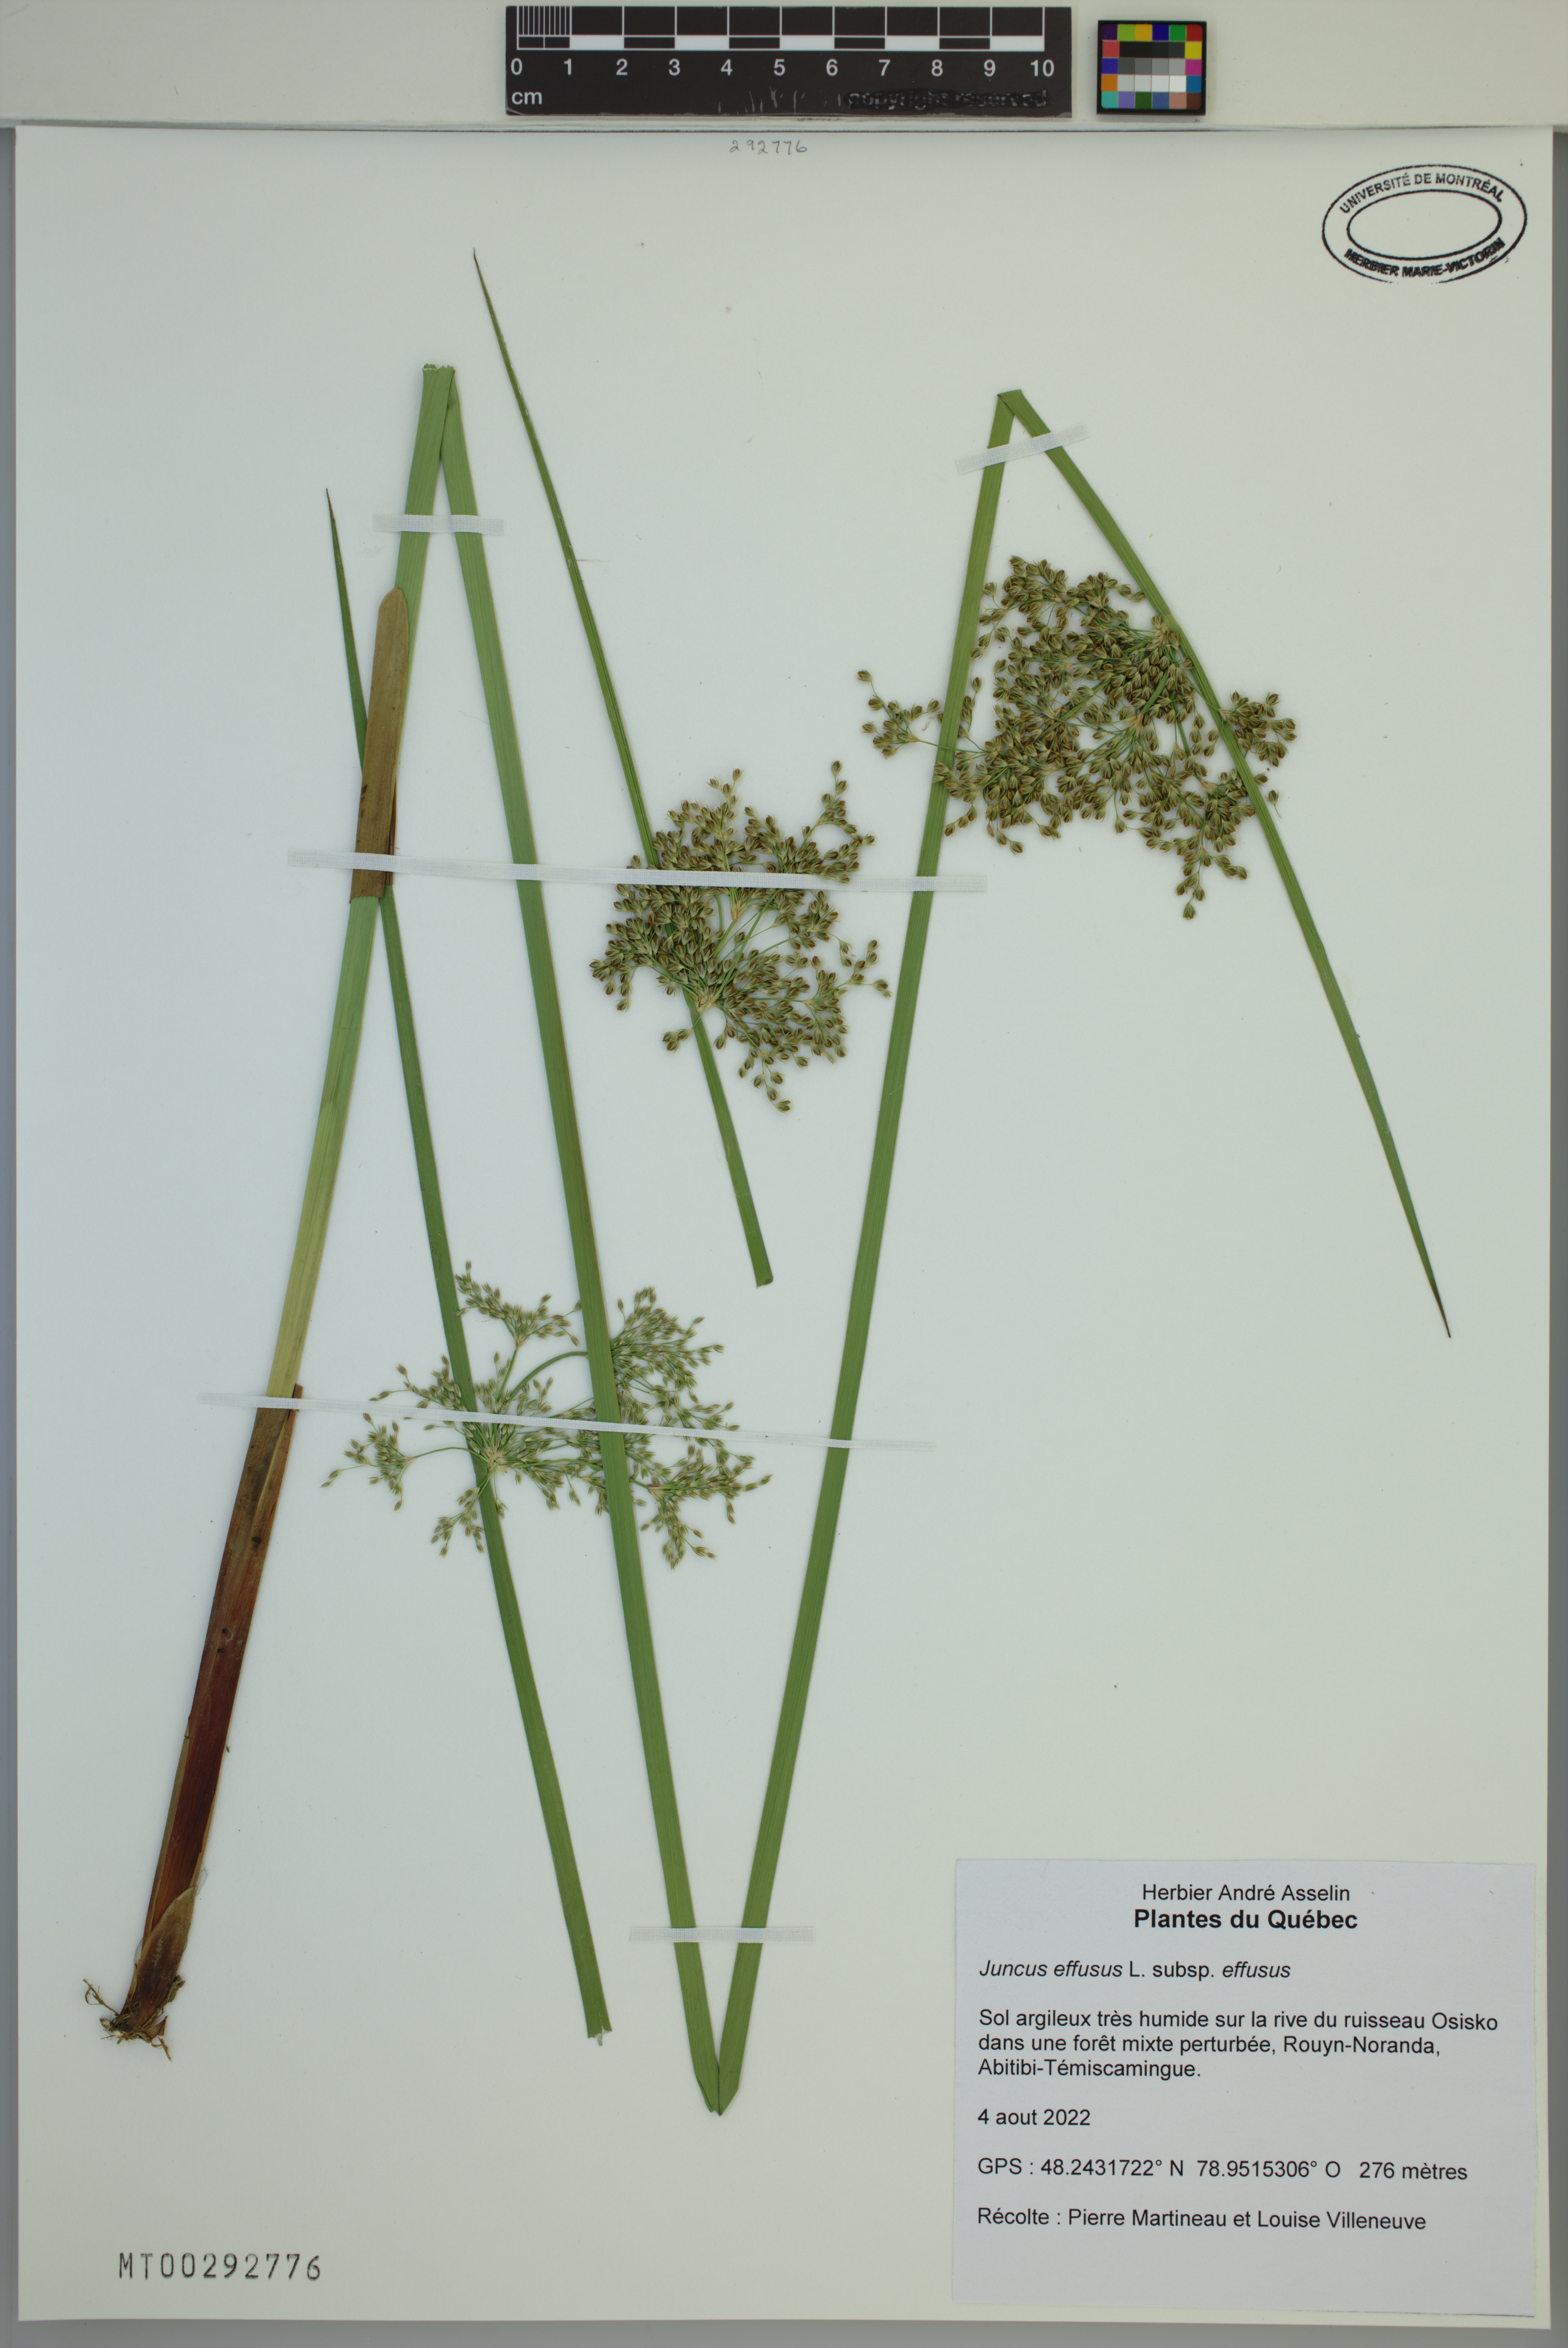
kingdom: Plantae
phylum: Tracheophyta
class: Liliopsida
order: Poales
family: Juncaceae
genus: Juncus
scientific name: Juncus effusus
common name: Soft rush
